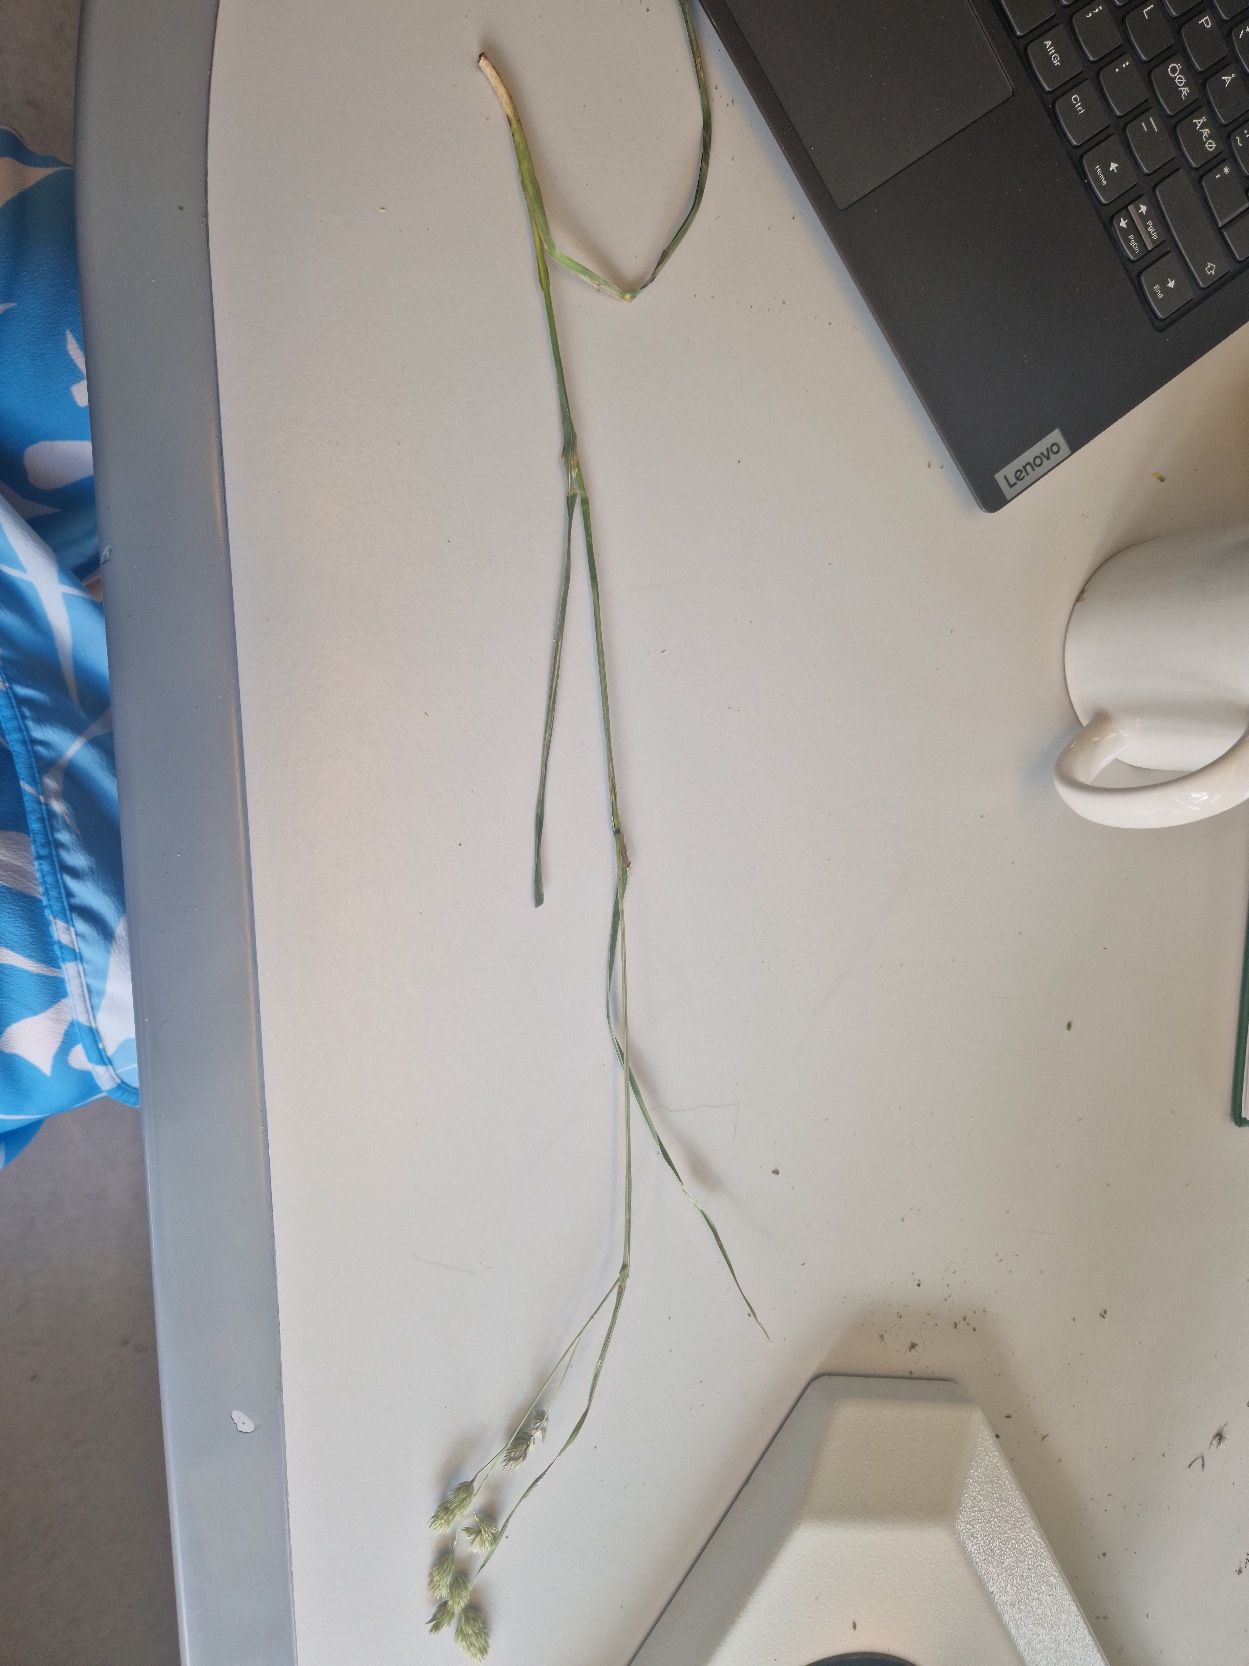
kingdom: Plantae
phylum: Tracheophyta
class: Liliopsida
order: Poales
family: Poaceae
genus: Dactylis
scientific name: Dactylis glomerata
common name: Almindelig hundegræs
